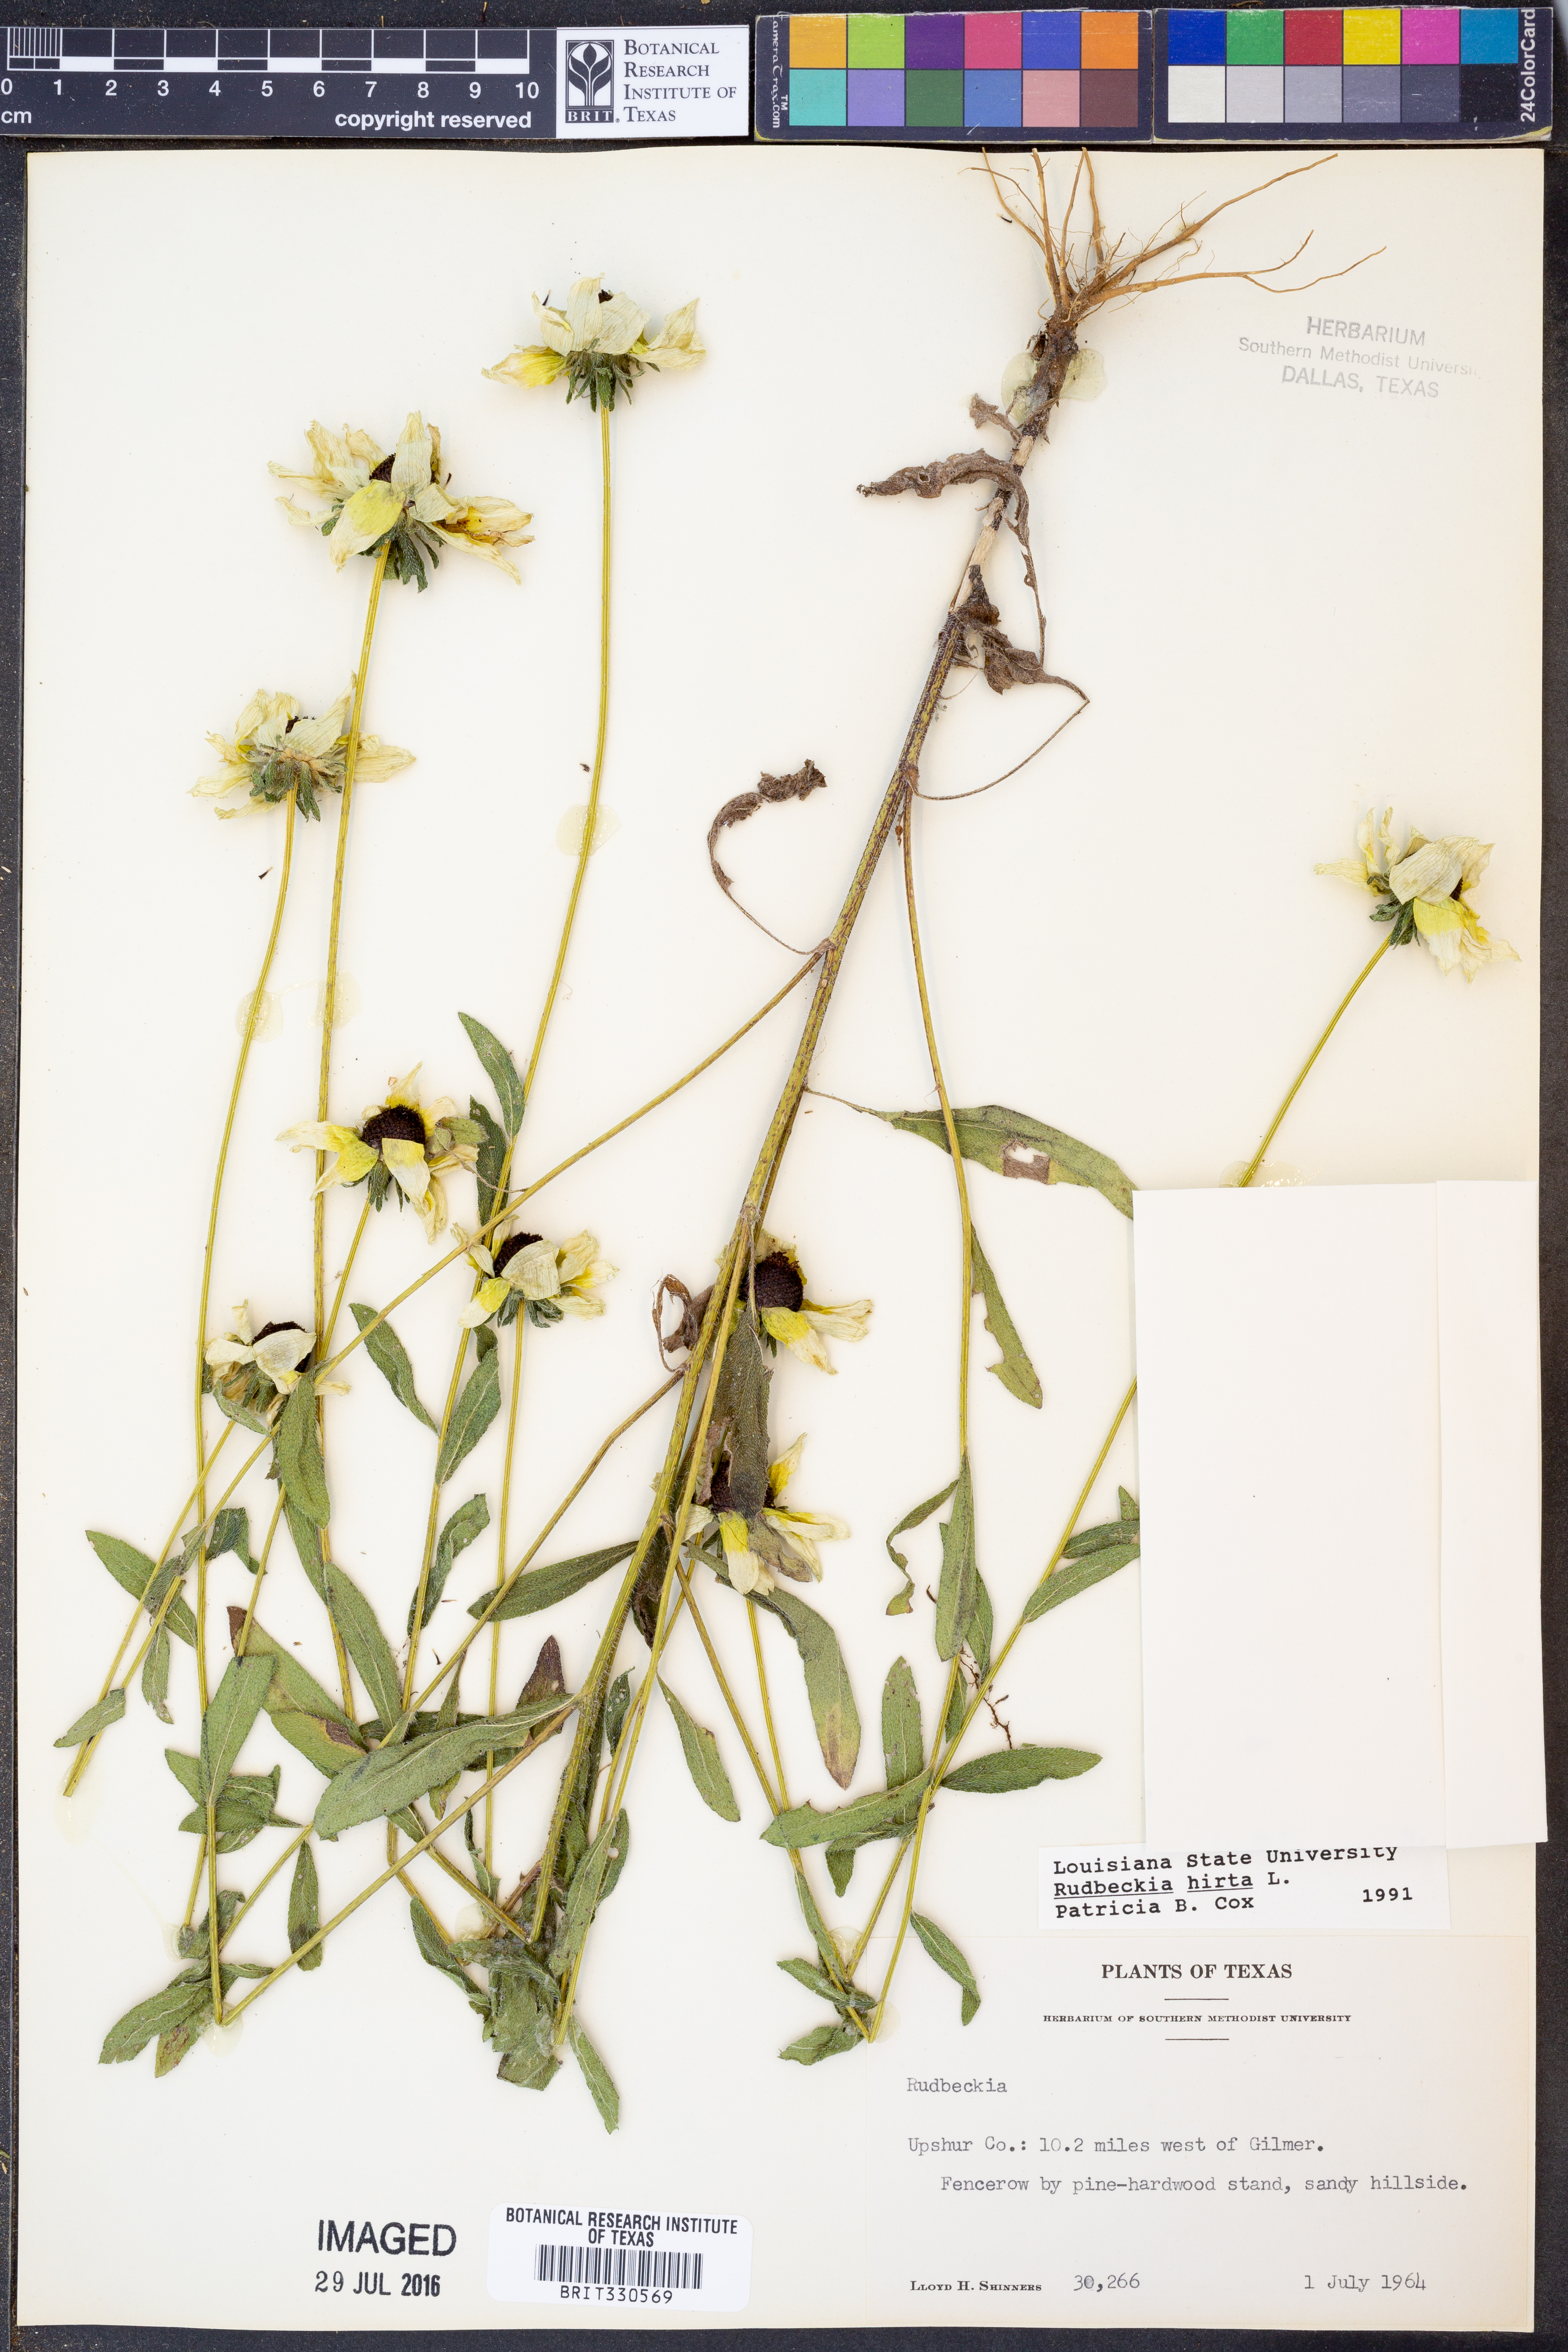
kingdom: Plantae
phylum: Tracheophyta
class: Magnoliopsida
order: Asterales
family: Asteraceae
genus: Rudbeckia
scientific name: Rudbeckia hirta
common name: Black-eyed-susan
